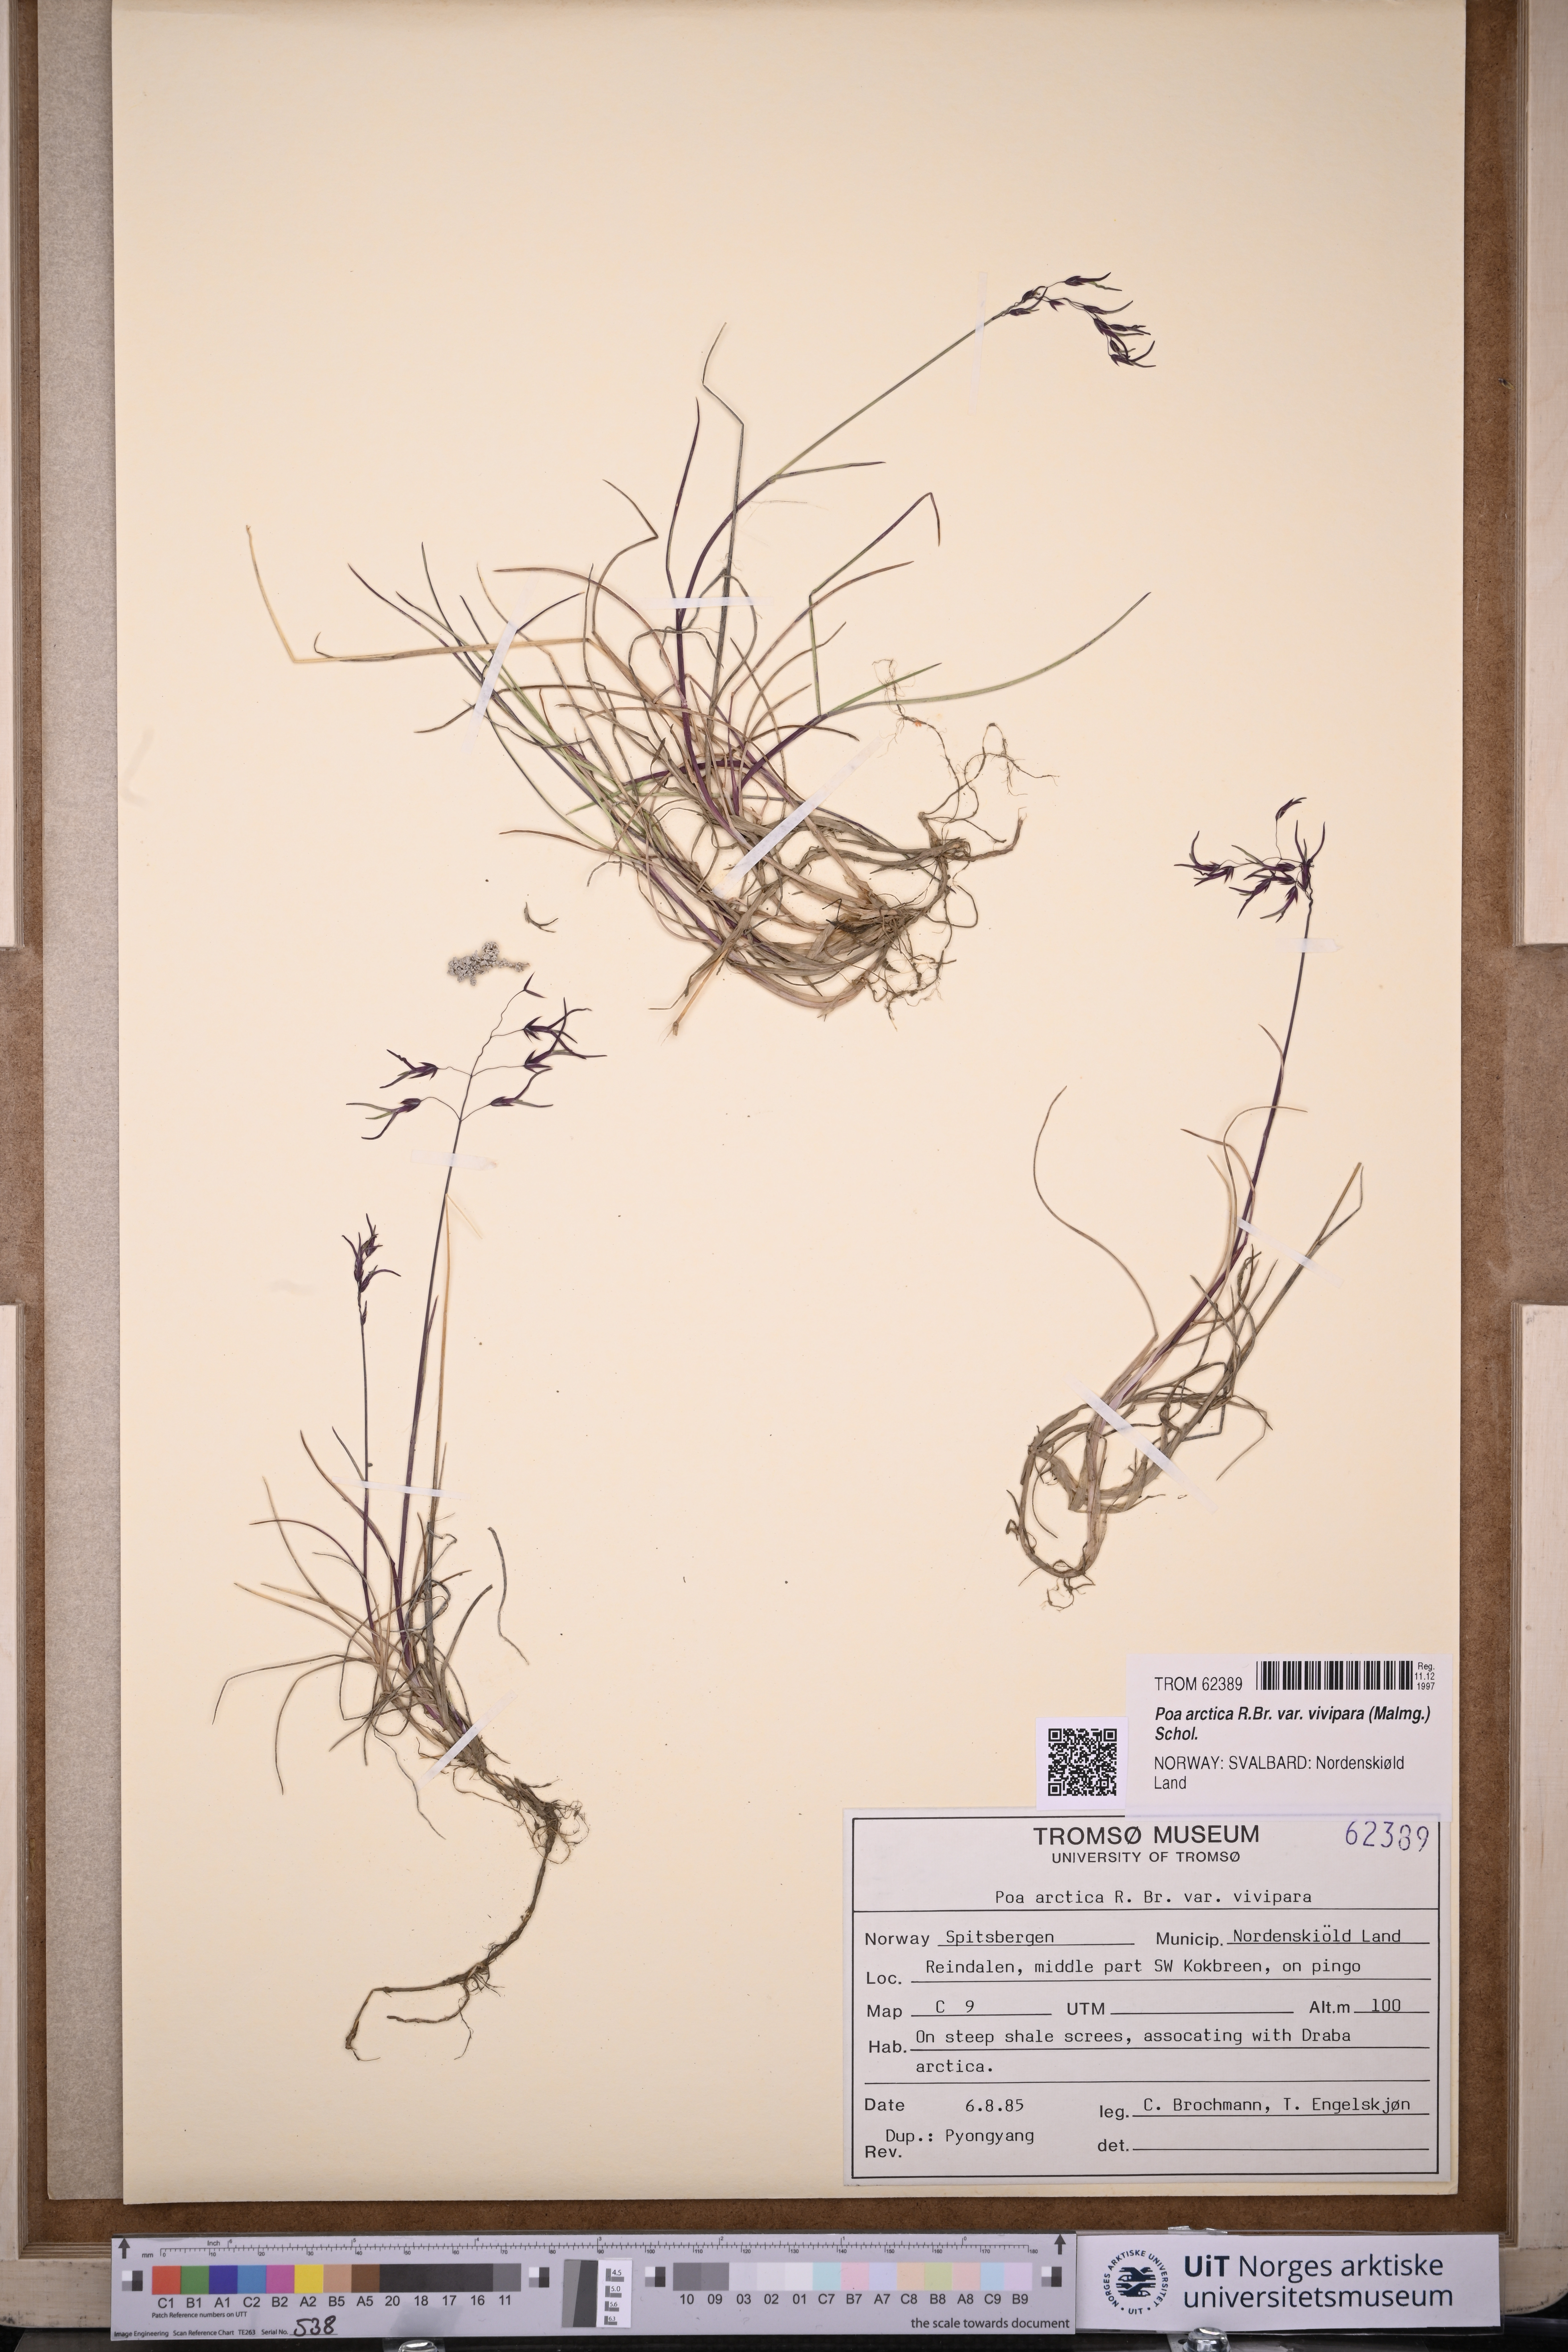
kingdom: Plantae
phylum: Tracheophyta
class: Liliopsida
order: Poales
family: Poaceae
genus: Poa
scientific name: Poa arctica
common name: Arctic bluegrass
